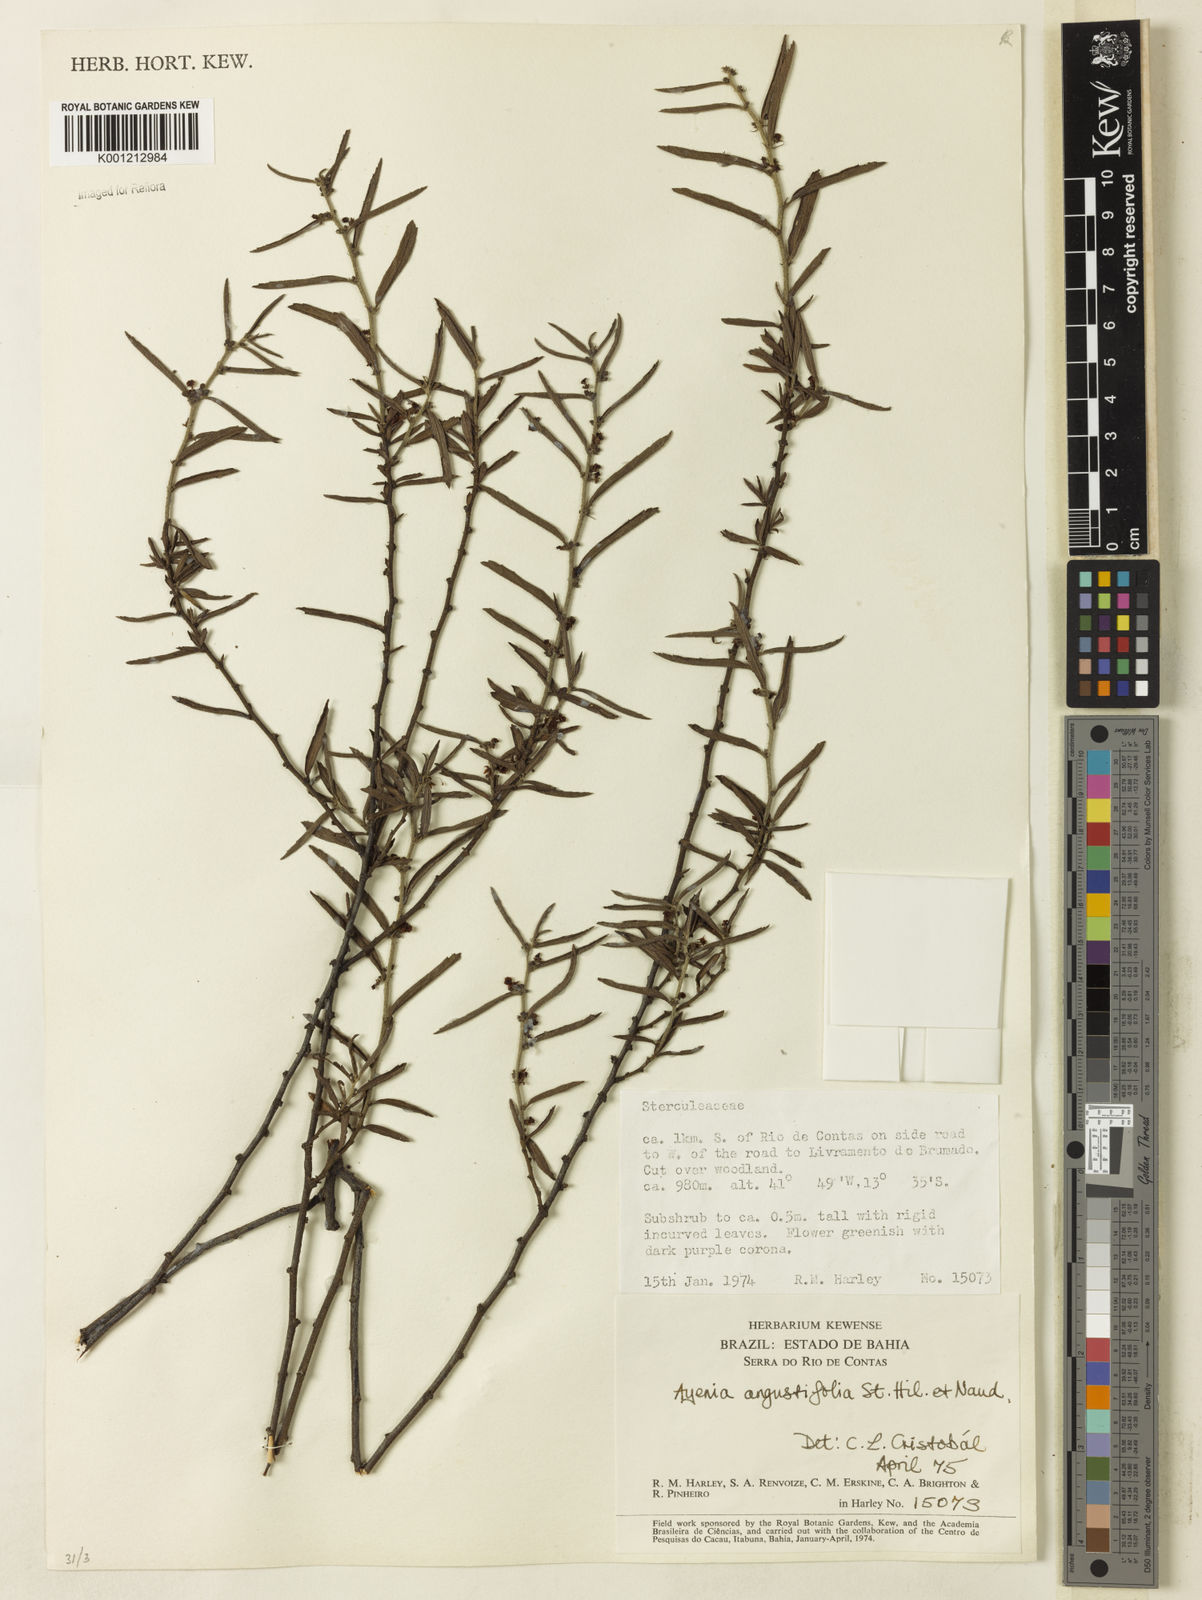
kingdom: Plantae
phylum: Tracheophyta
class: Magnoliopsida
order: Malvales
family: Malvaceae
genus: Ayenia
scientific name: Ayenia angustifolia
